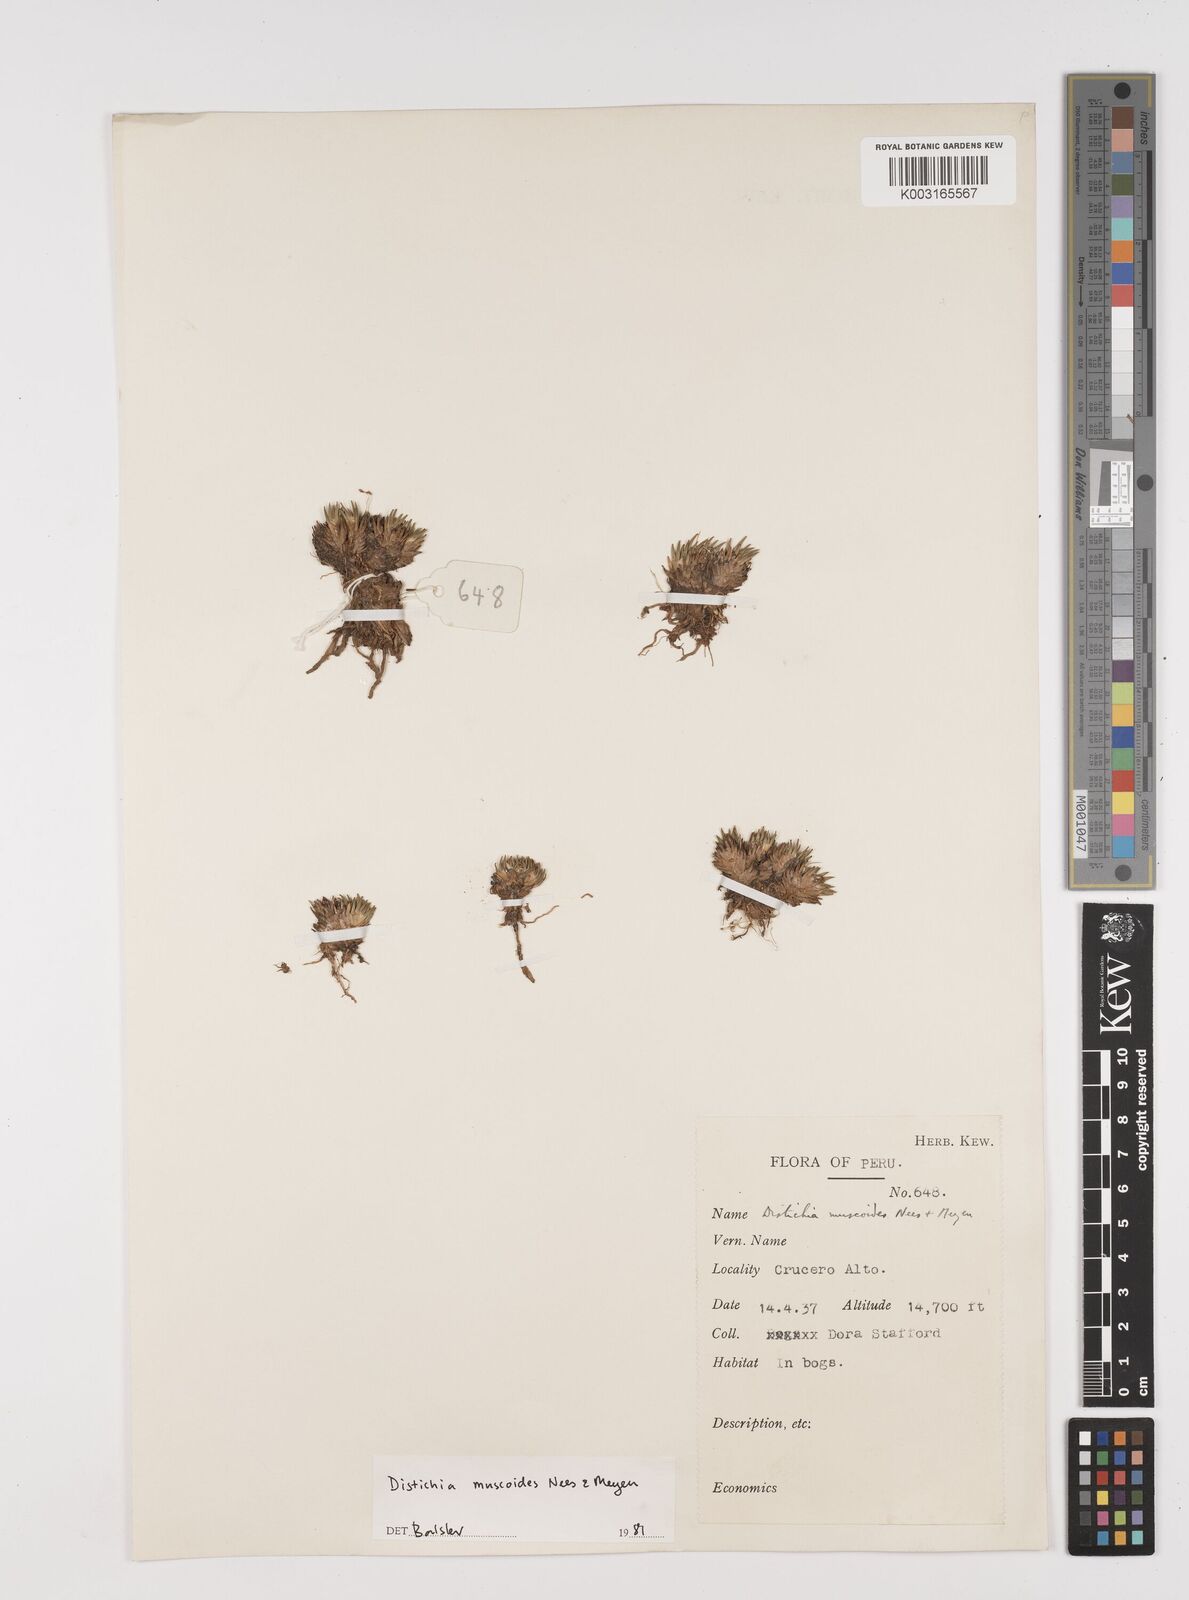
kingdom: Plantae
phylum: Tracheophyta
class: Liliopsida
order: Poales
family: Juncaceae
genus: Distichia
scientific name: Distichia muscoides
